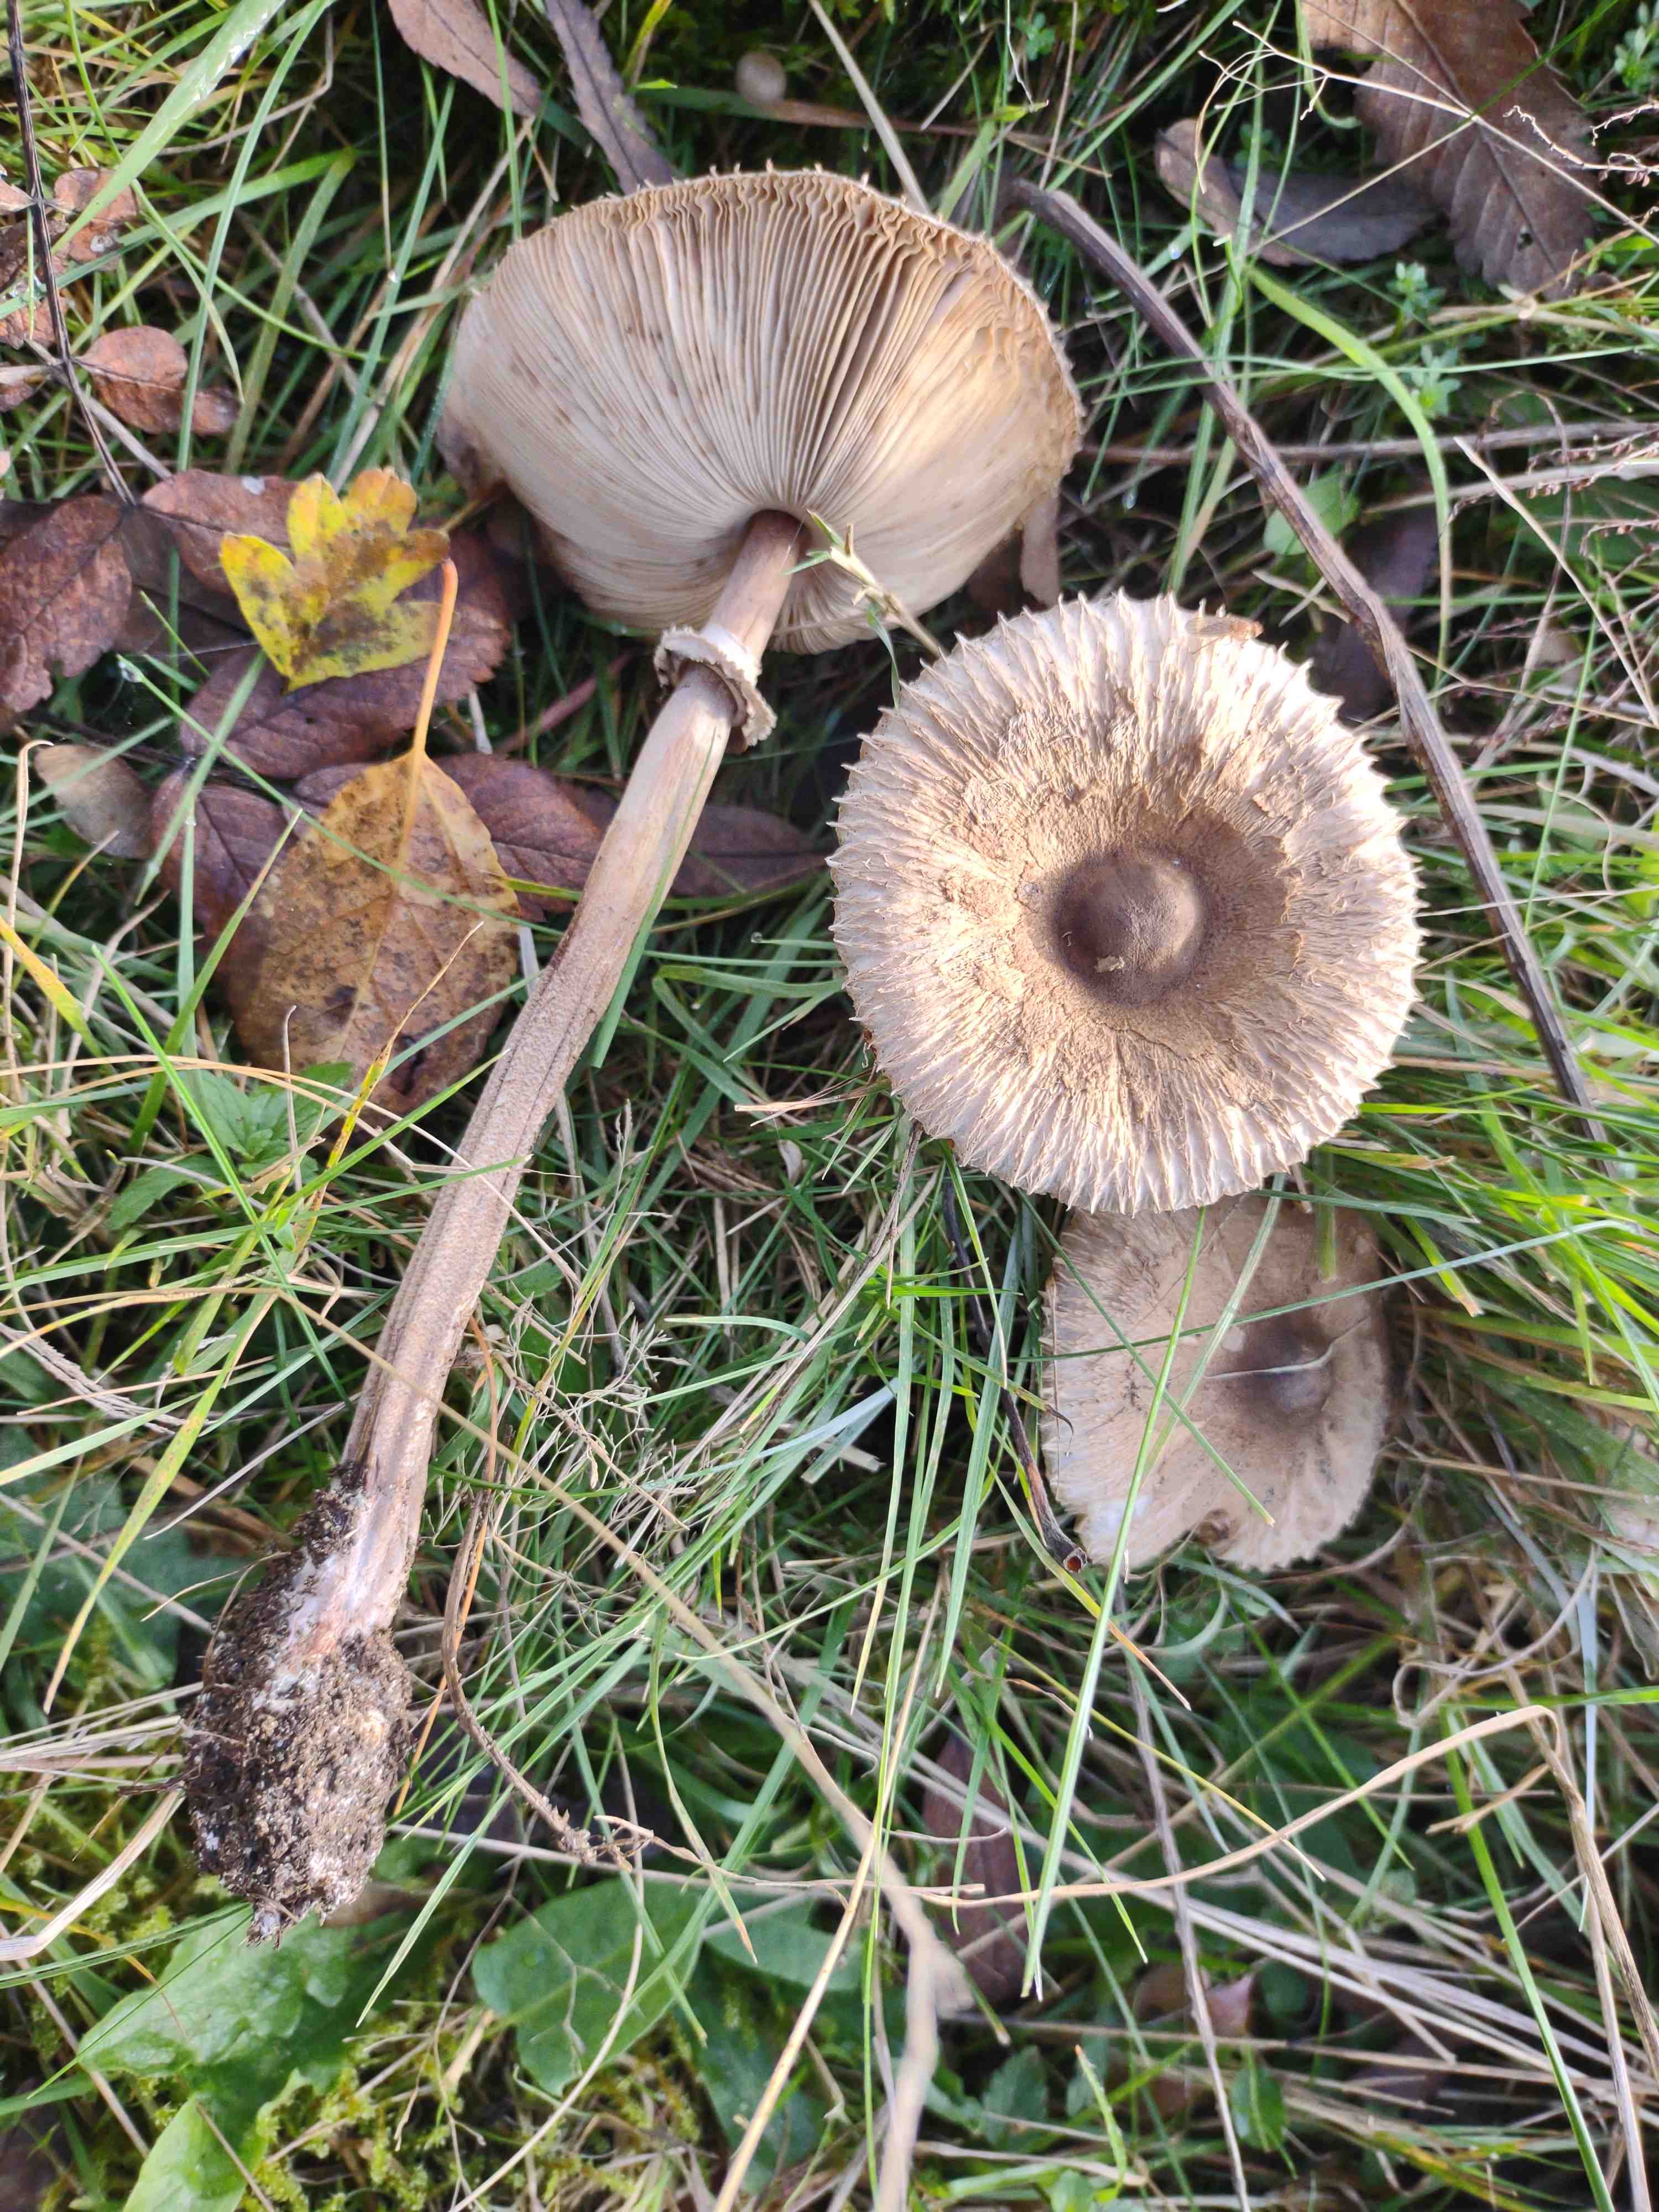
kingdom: Fungi
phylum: Basidiomycota
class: Agaricomycetes
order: Agaricales
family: Agaricaceae
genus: Macrolepiota
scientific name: Macrolepiota mastoidea
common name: puklet kæmpeparasolhat
